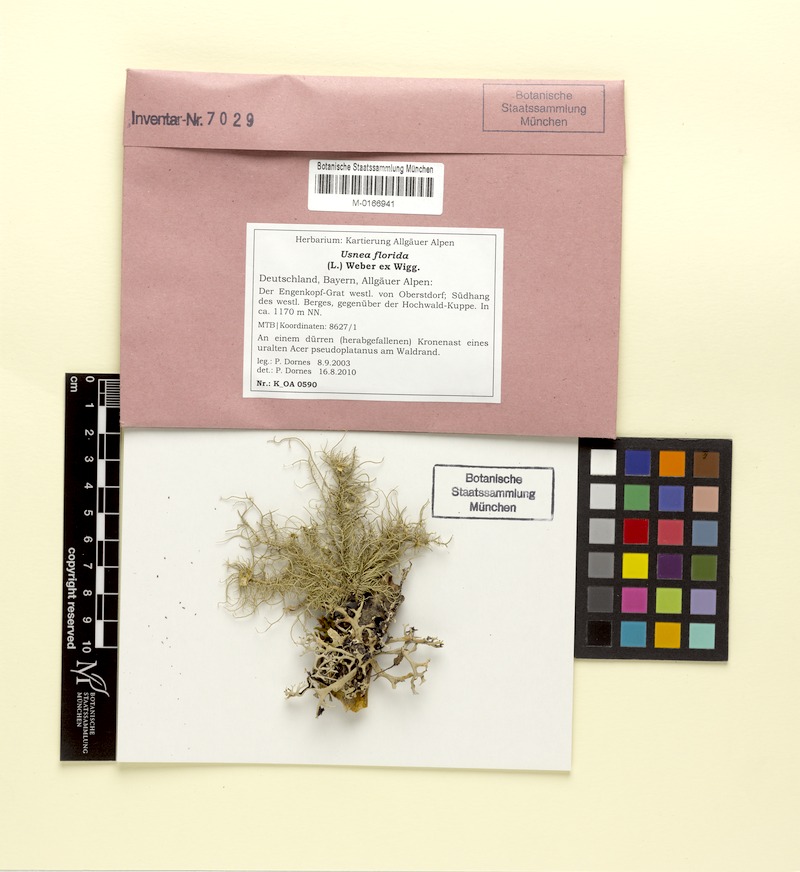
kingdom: Fungi
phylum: Ascomycota
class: Lecanoromycetes
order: Lecanorales
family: Parmeliaceae
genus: Usnea
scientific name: Usnea florida
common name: Witches' whiskers lichen
